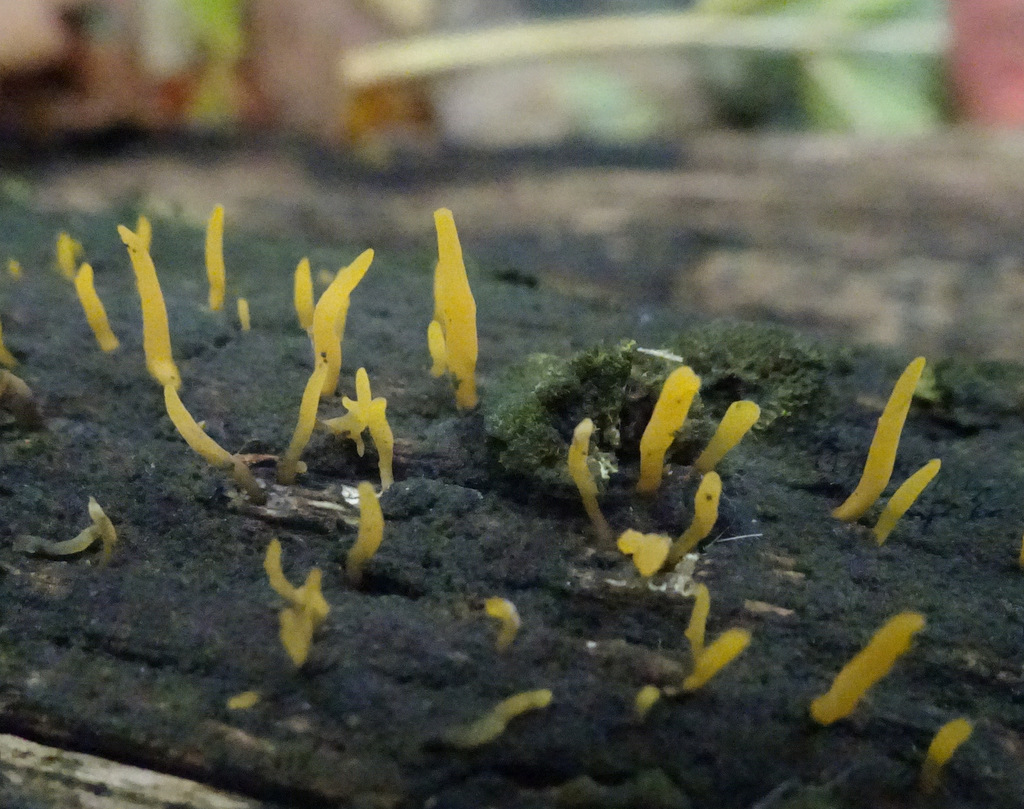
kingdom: Fungi
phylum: Basidiomycota
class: Dacrymycetes
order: Dacrymycetales
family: Dacrymycetaceae
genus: Calocera
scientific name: Calocera cornea
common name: liden guldgaffel
